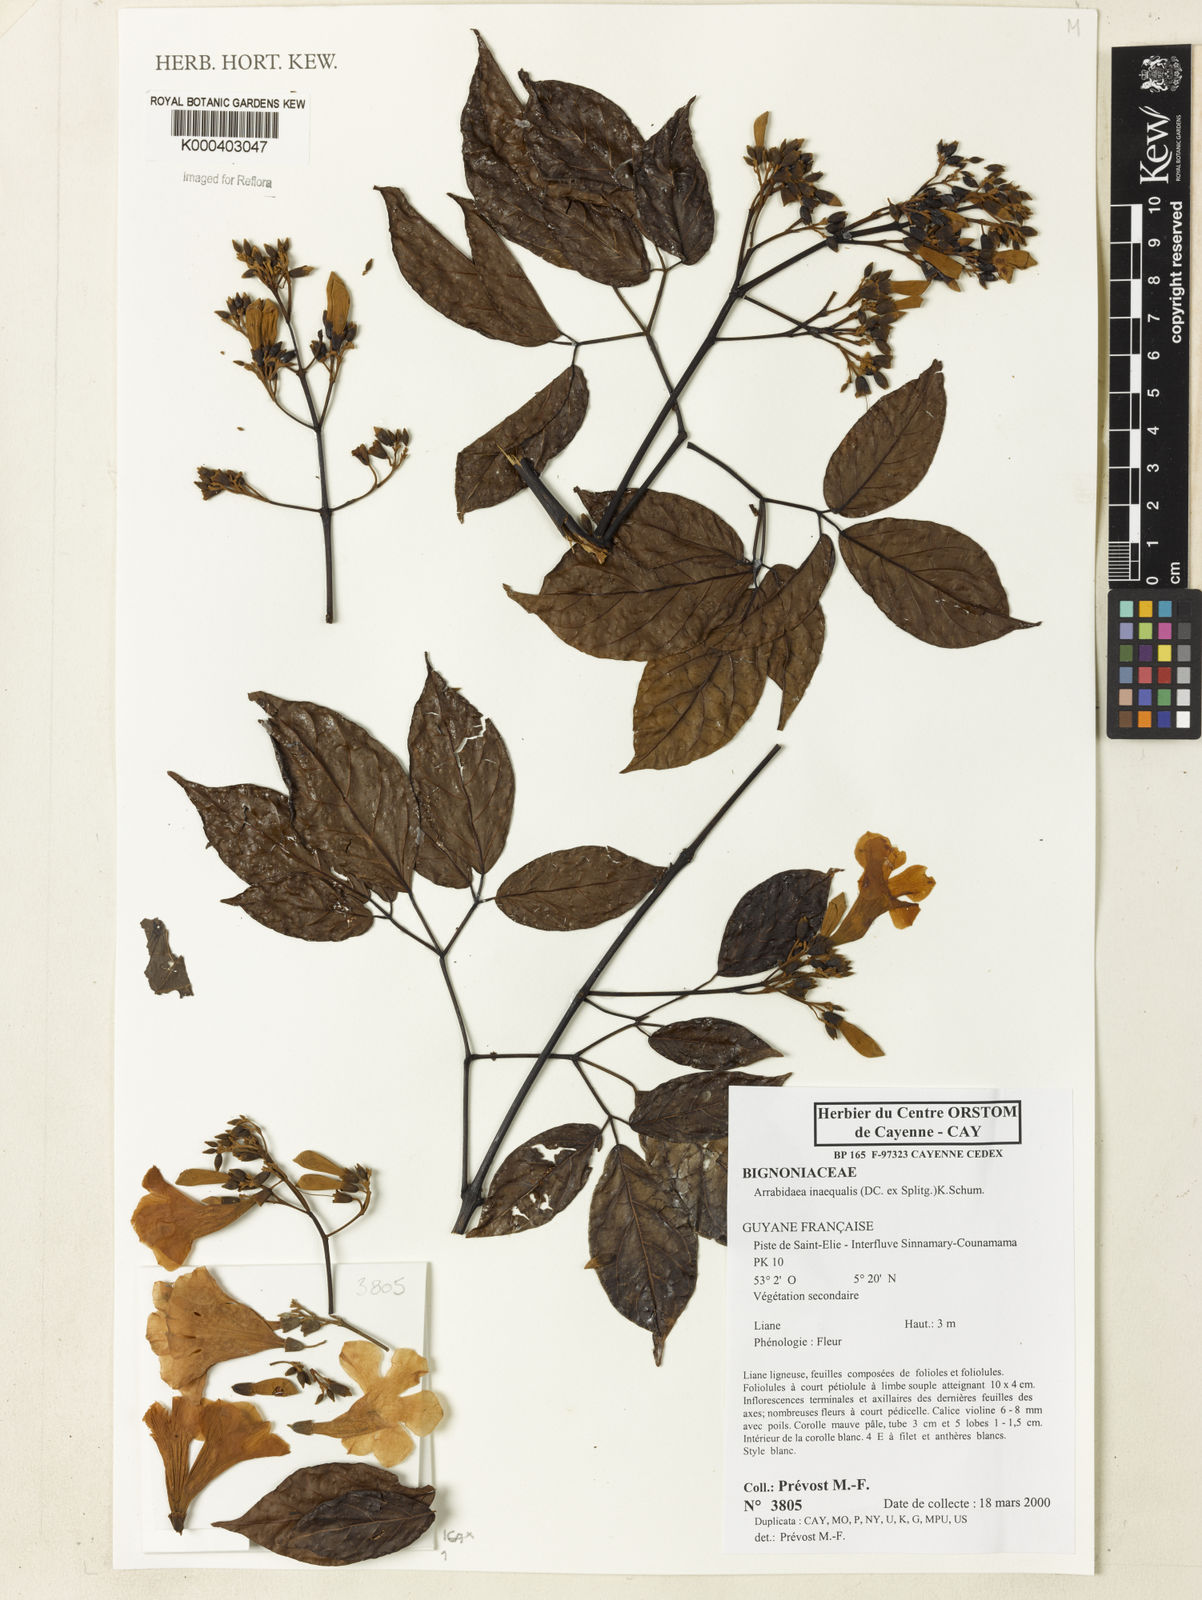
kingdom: Plantae
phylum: Tracheophyta
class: Magnoliopsida
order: Lamiales
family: Bignoniaceae
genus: Cuspidaria
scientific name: Cuspidaria inaequalis
